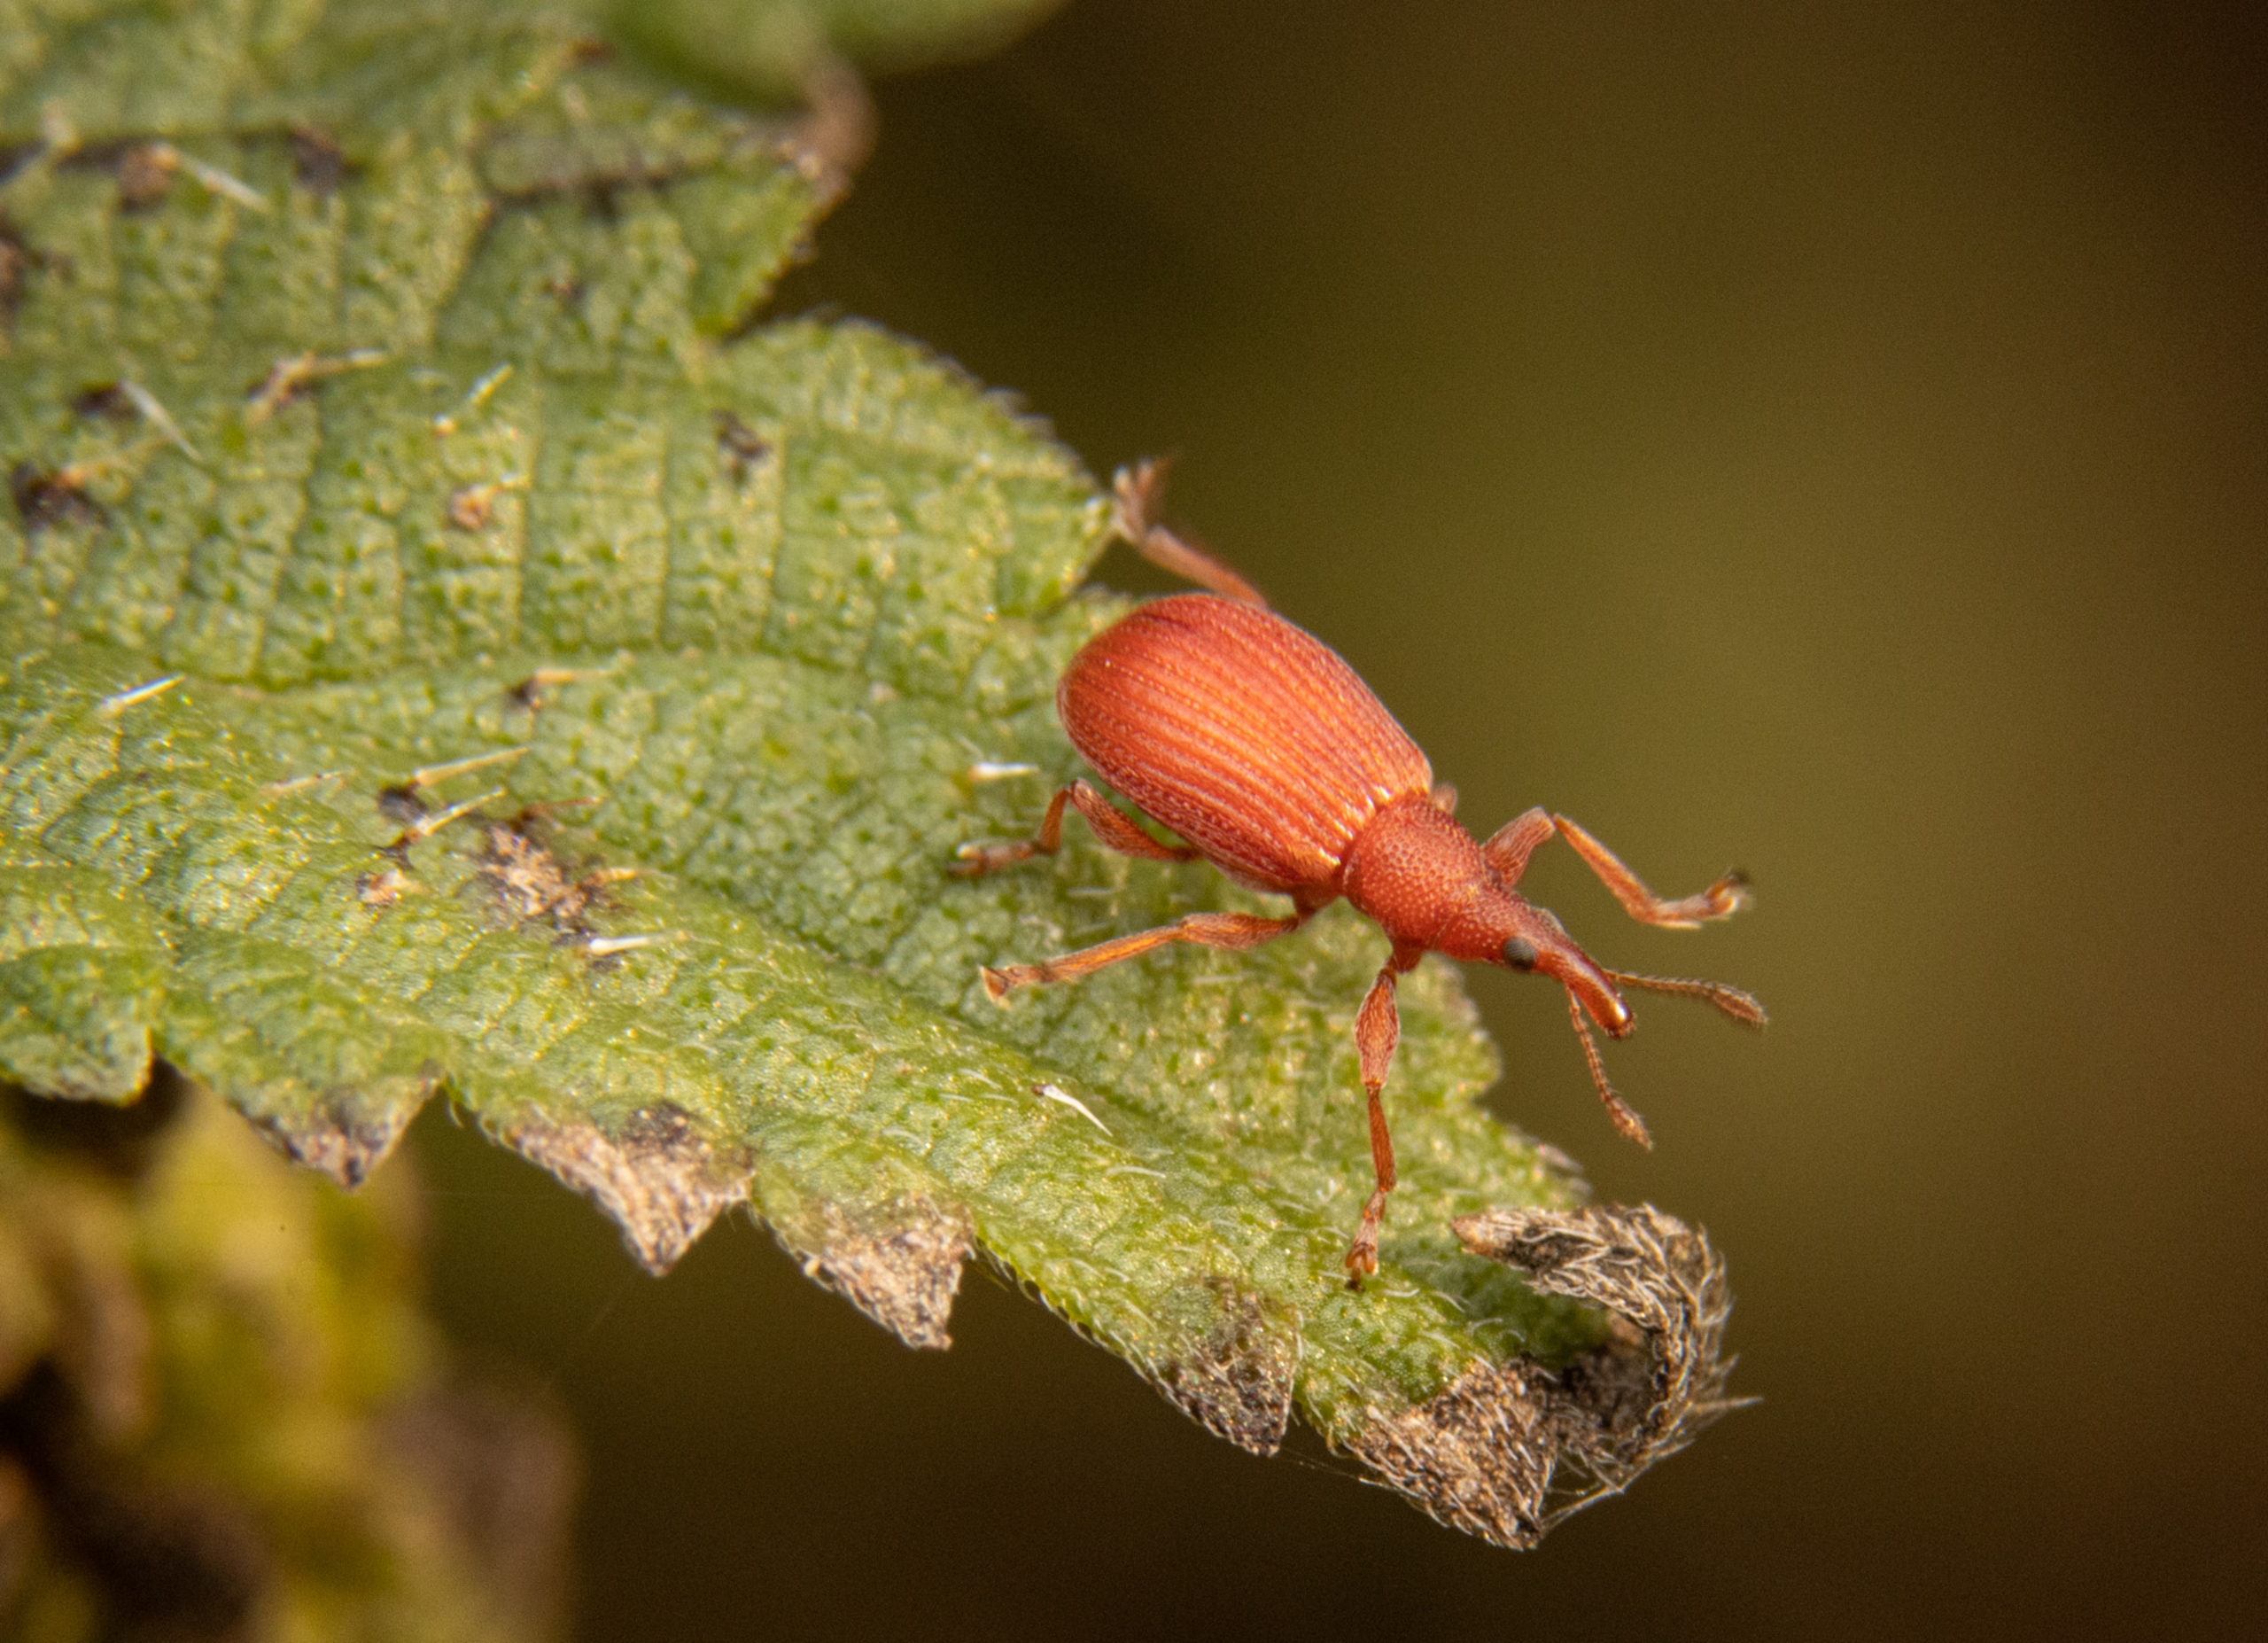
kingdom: Animalia
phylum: Arthropoda
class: Insecta
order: Coleoptera
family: Apionidae
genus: Apion
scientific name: Apion frumentarium
